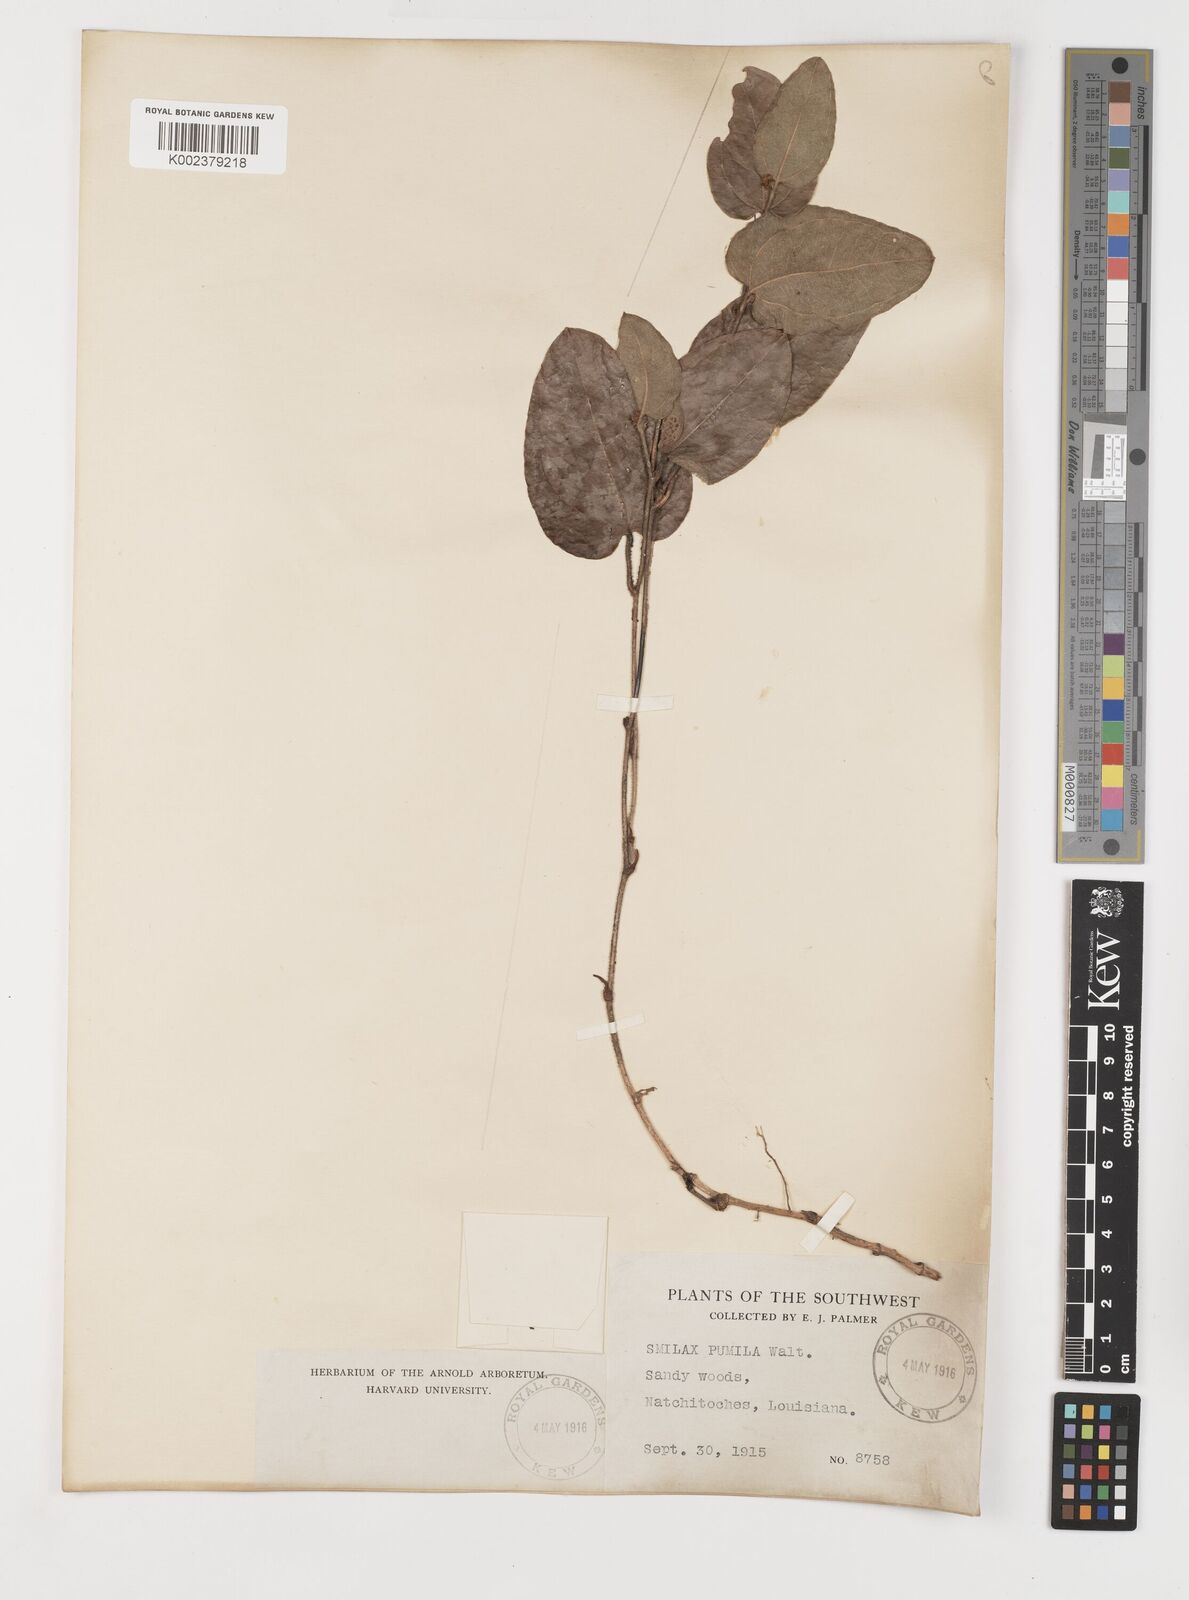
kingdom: Plantae
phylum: Tracheophyta
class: Liliopsida
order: Liliales
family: Smilacaceae
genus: Smilax
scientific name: Smilax pumila
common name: Sarsaparilla-vine
